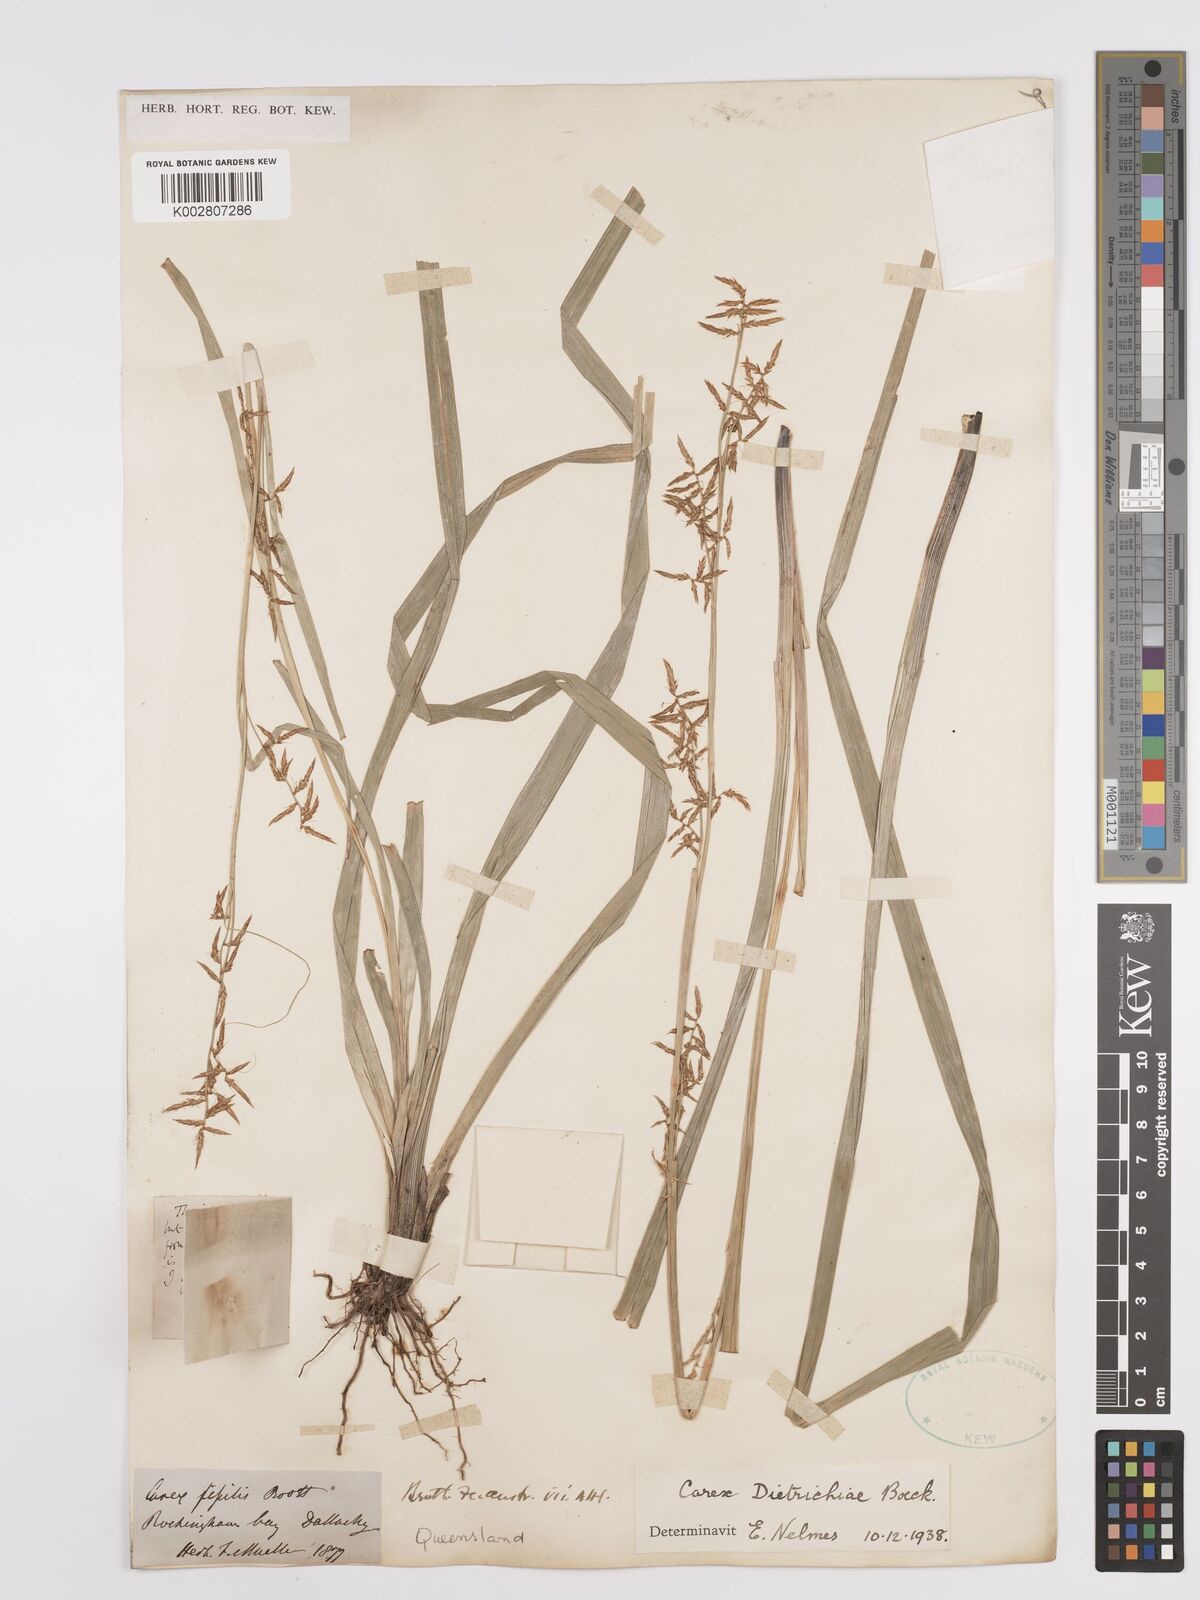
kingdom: Plantae
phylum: Tracheophyta
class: Liliopsida
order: Poales
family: Cyperaceae
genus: Carex
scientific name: Carex indica
